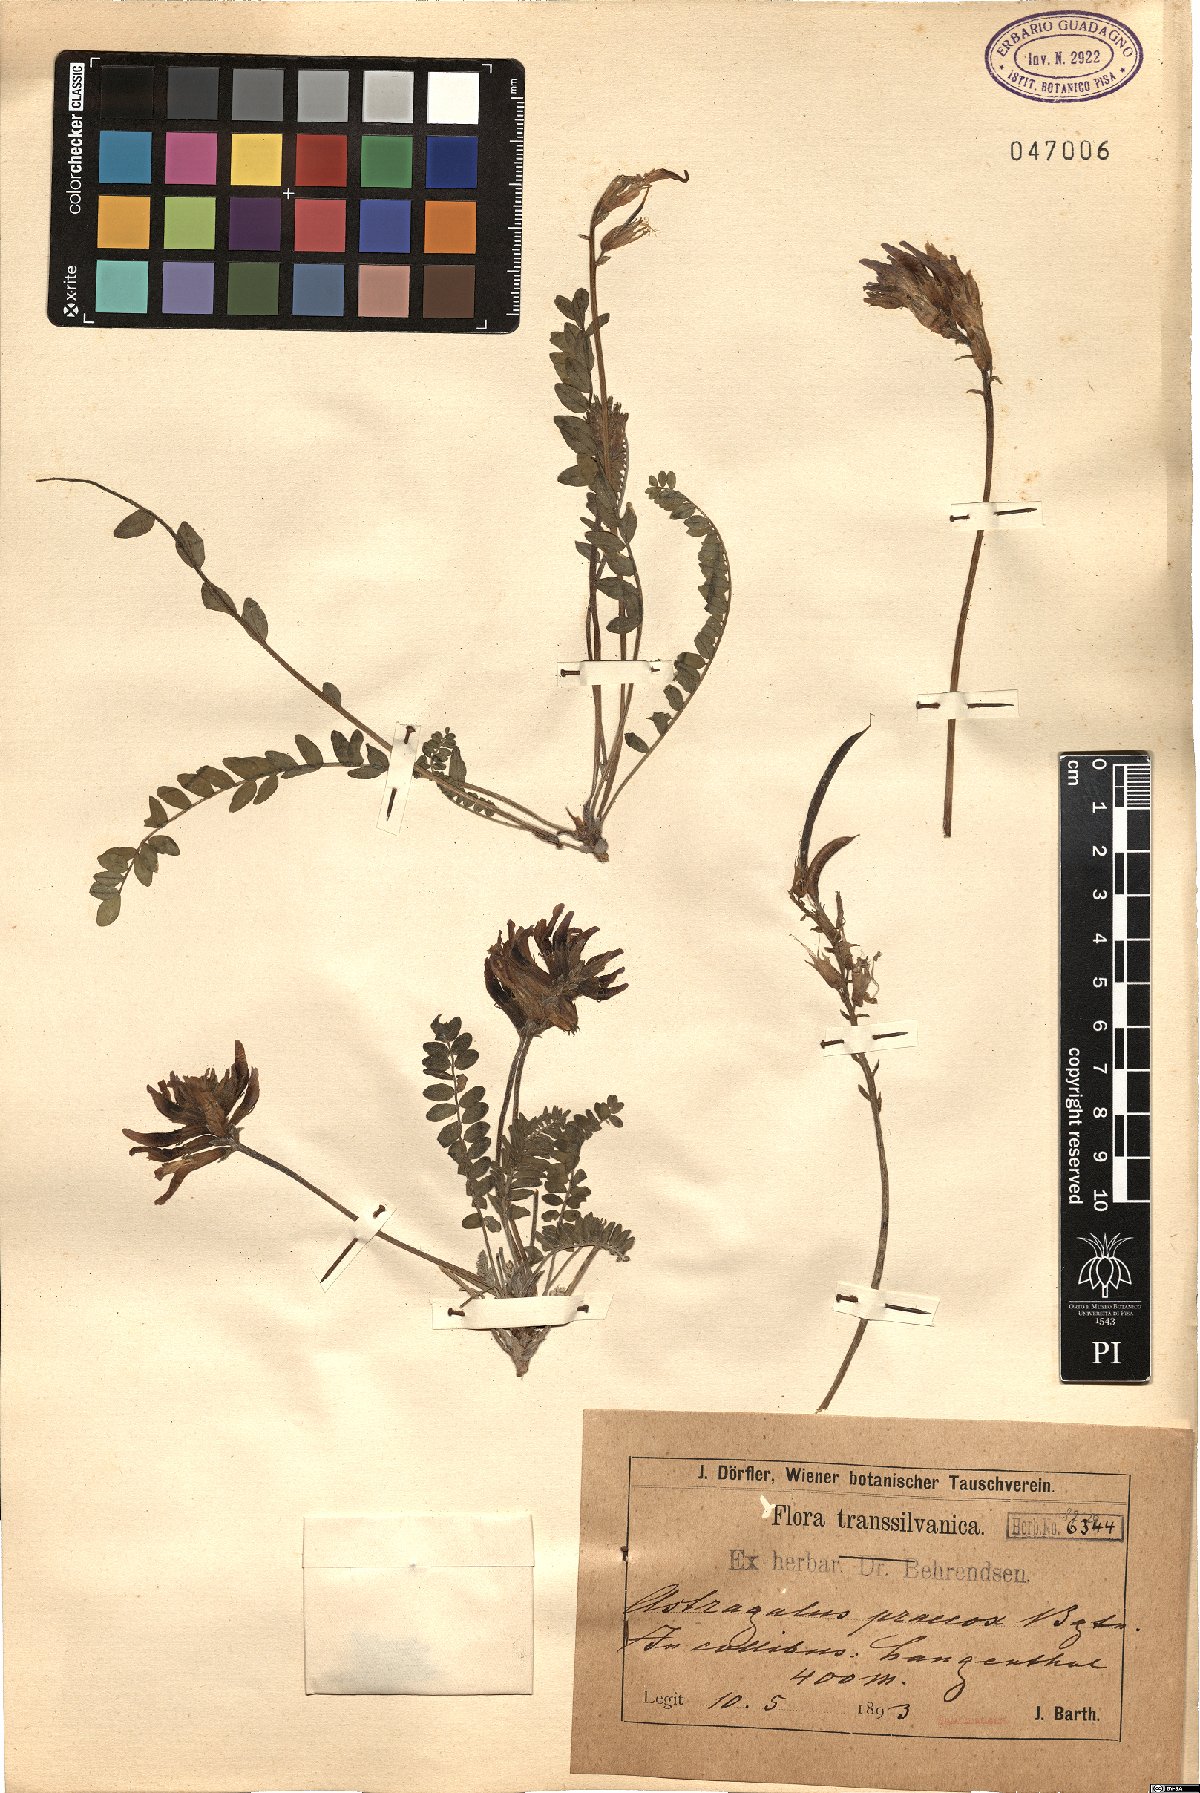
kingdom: Plantae
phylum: Tracheophyta
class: Magnoliopsida
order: Fabales
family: Fabaceae
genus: Astragalus
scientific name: Astragalus monspessulanus
